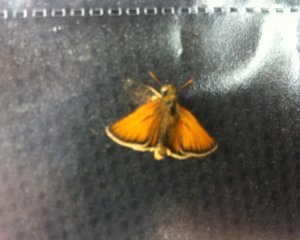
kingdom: Animalia
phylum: Arthropoda
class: Insecta
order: Lepidoptera
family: Hesperiidae
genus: Thymelicus
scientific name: Thymelicus lineola
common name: European Skipper
